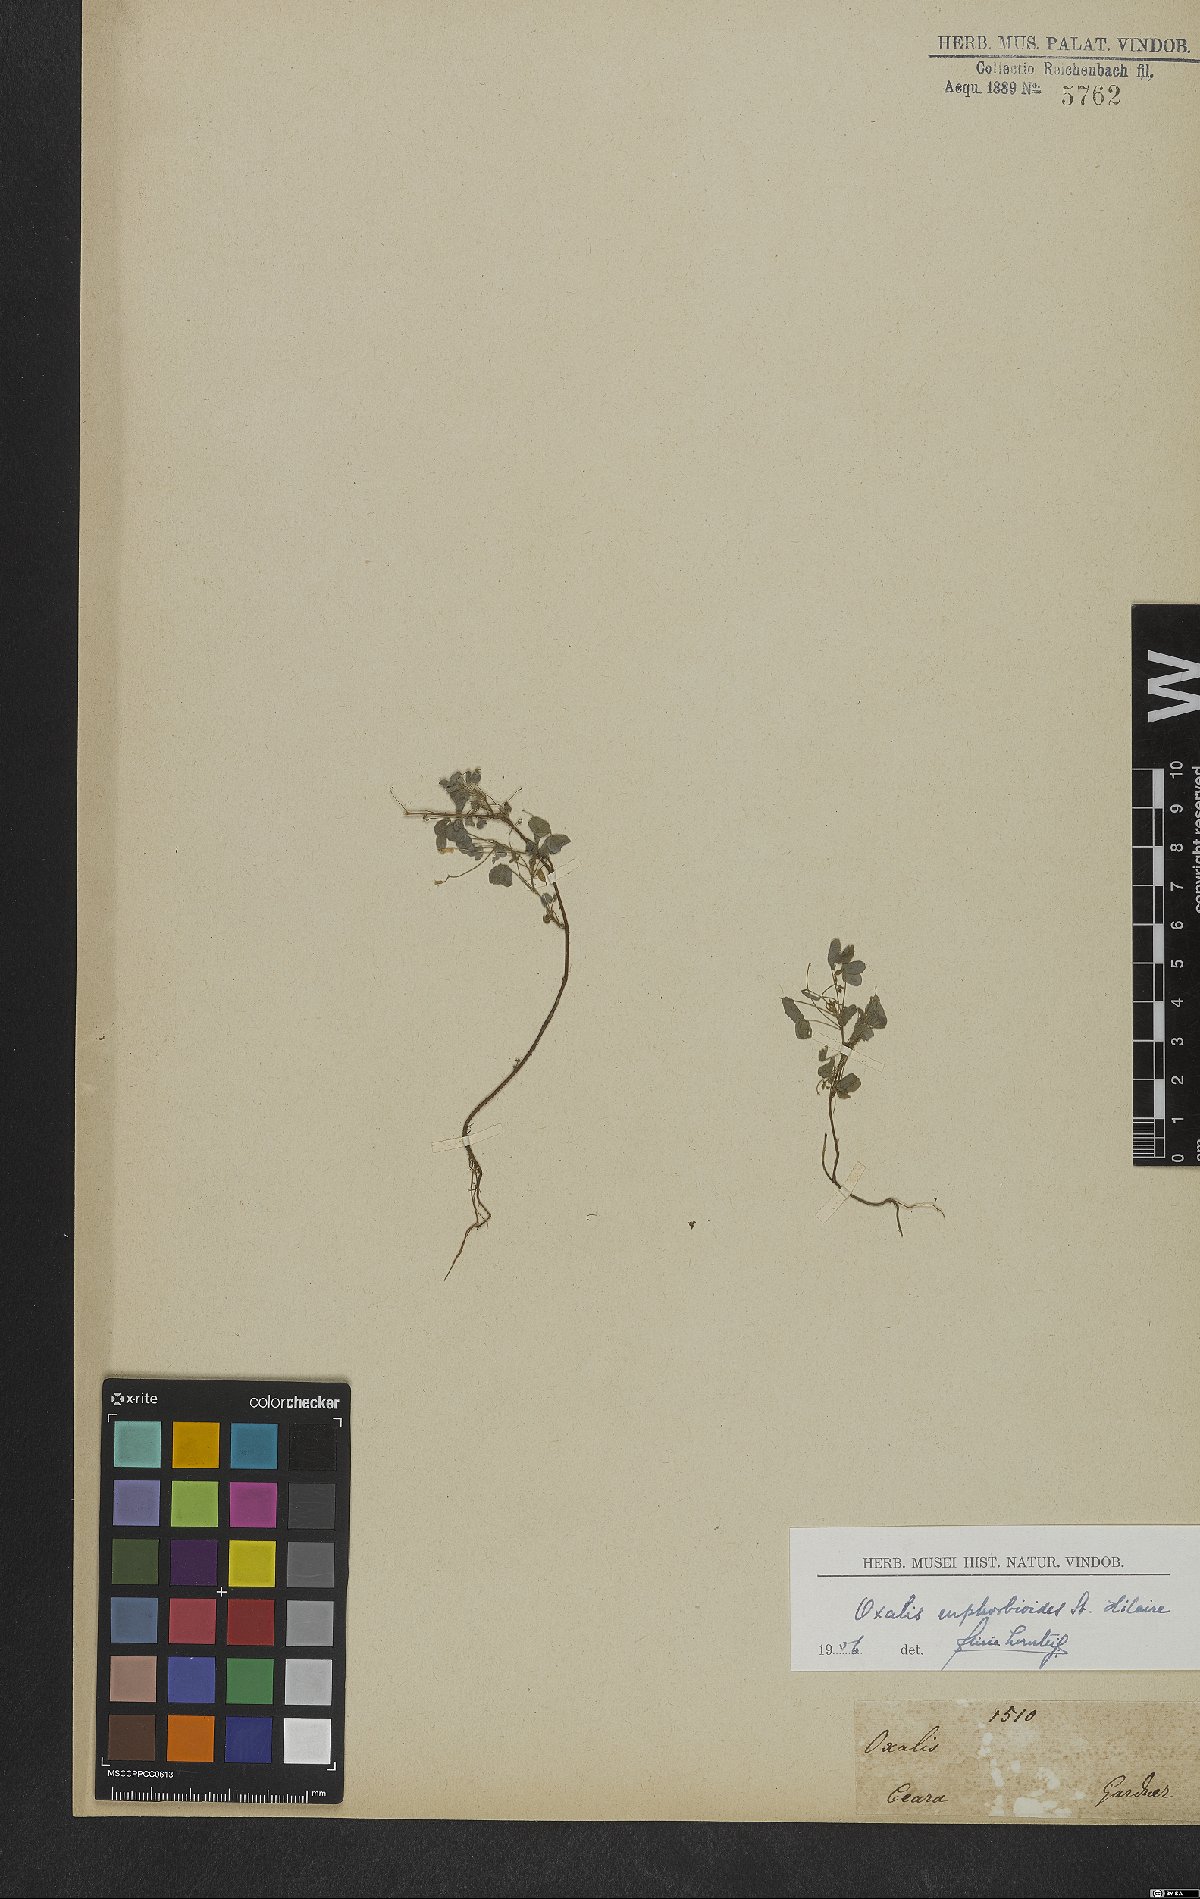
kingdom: Plantae
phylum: Tracheophyta
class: Magnoliopsida
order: Oxalidales
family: Oxalidaceae
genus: Oxalis
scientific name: Oxalis divaricata
